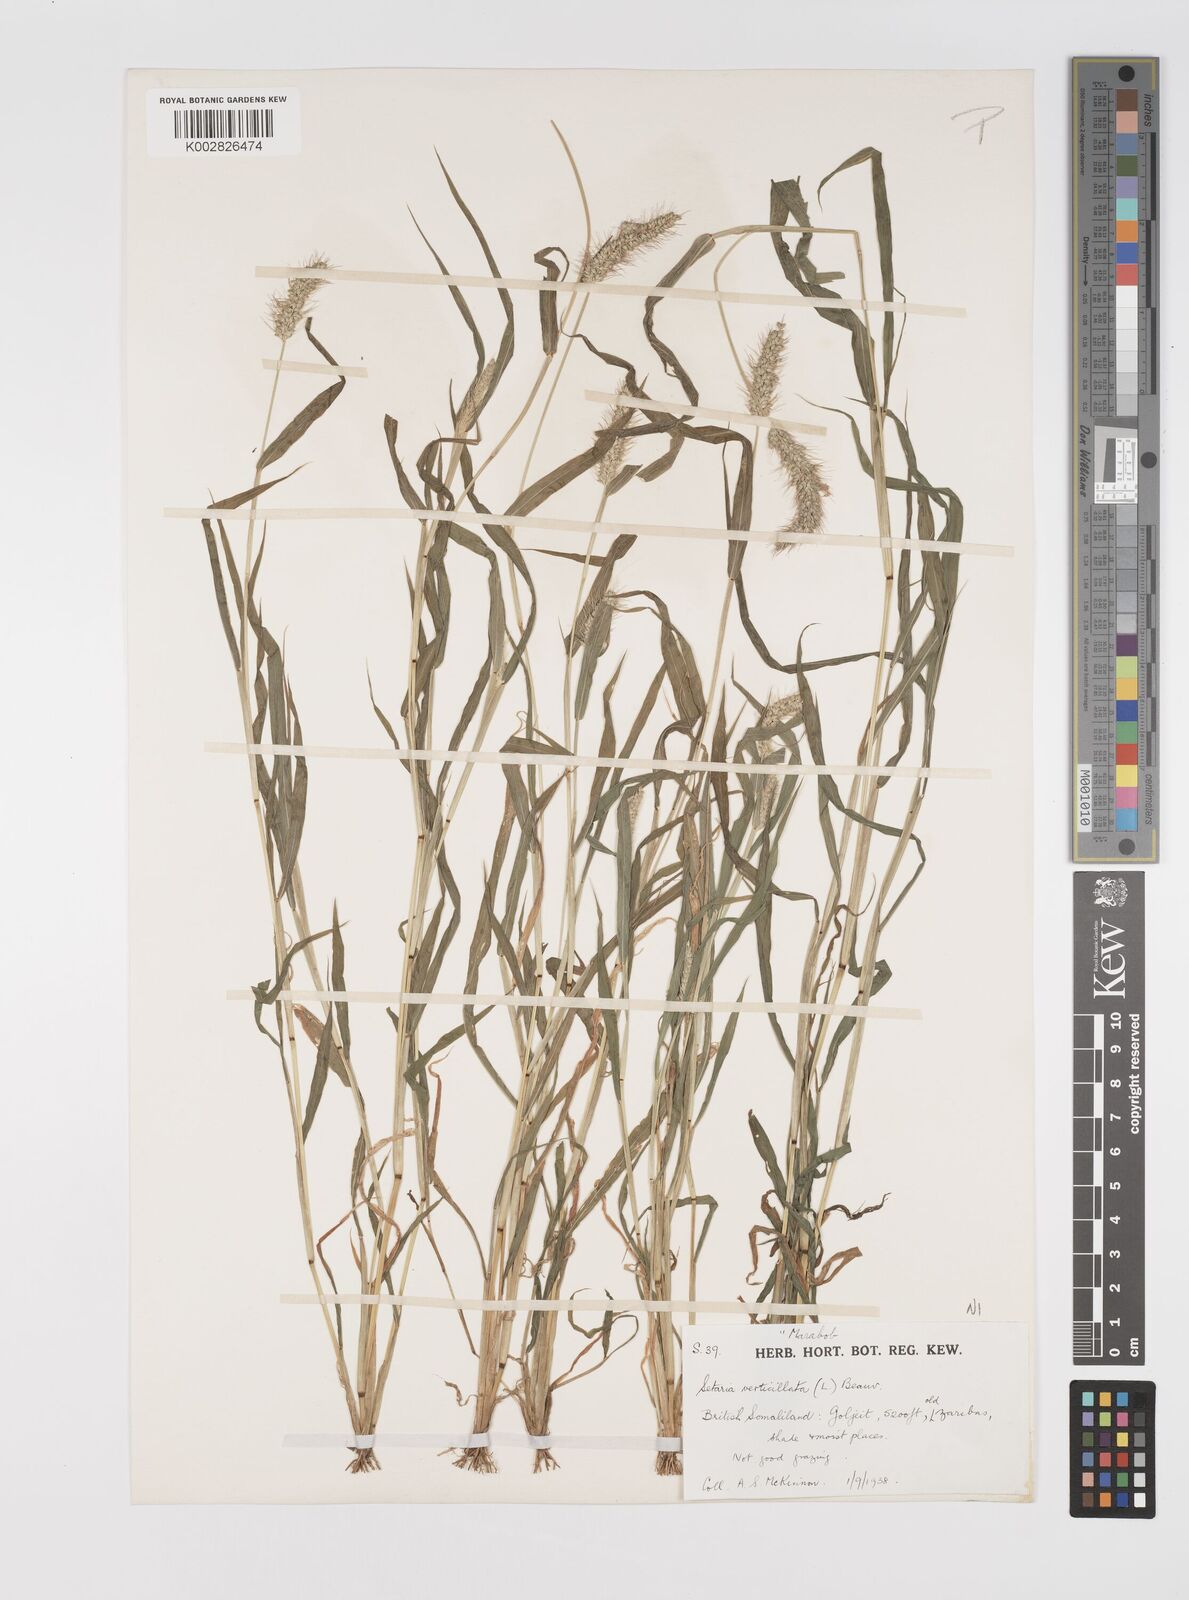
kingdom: Plantae
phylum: Tracheophyta
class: Liliopsida
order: Poales
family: Poaceae
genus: Setaria
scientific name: Setaria verticillata
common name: Hooked bristlegrass
